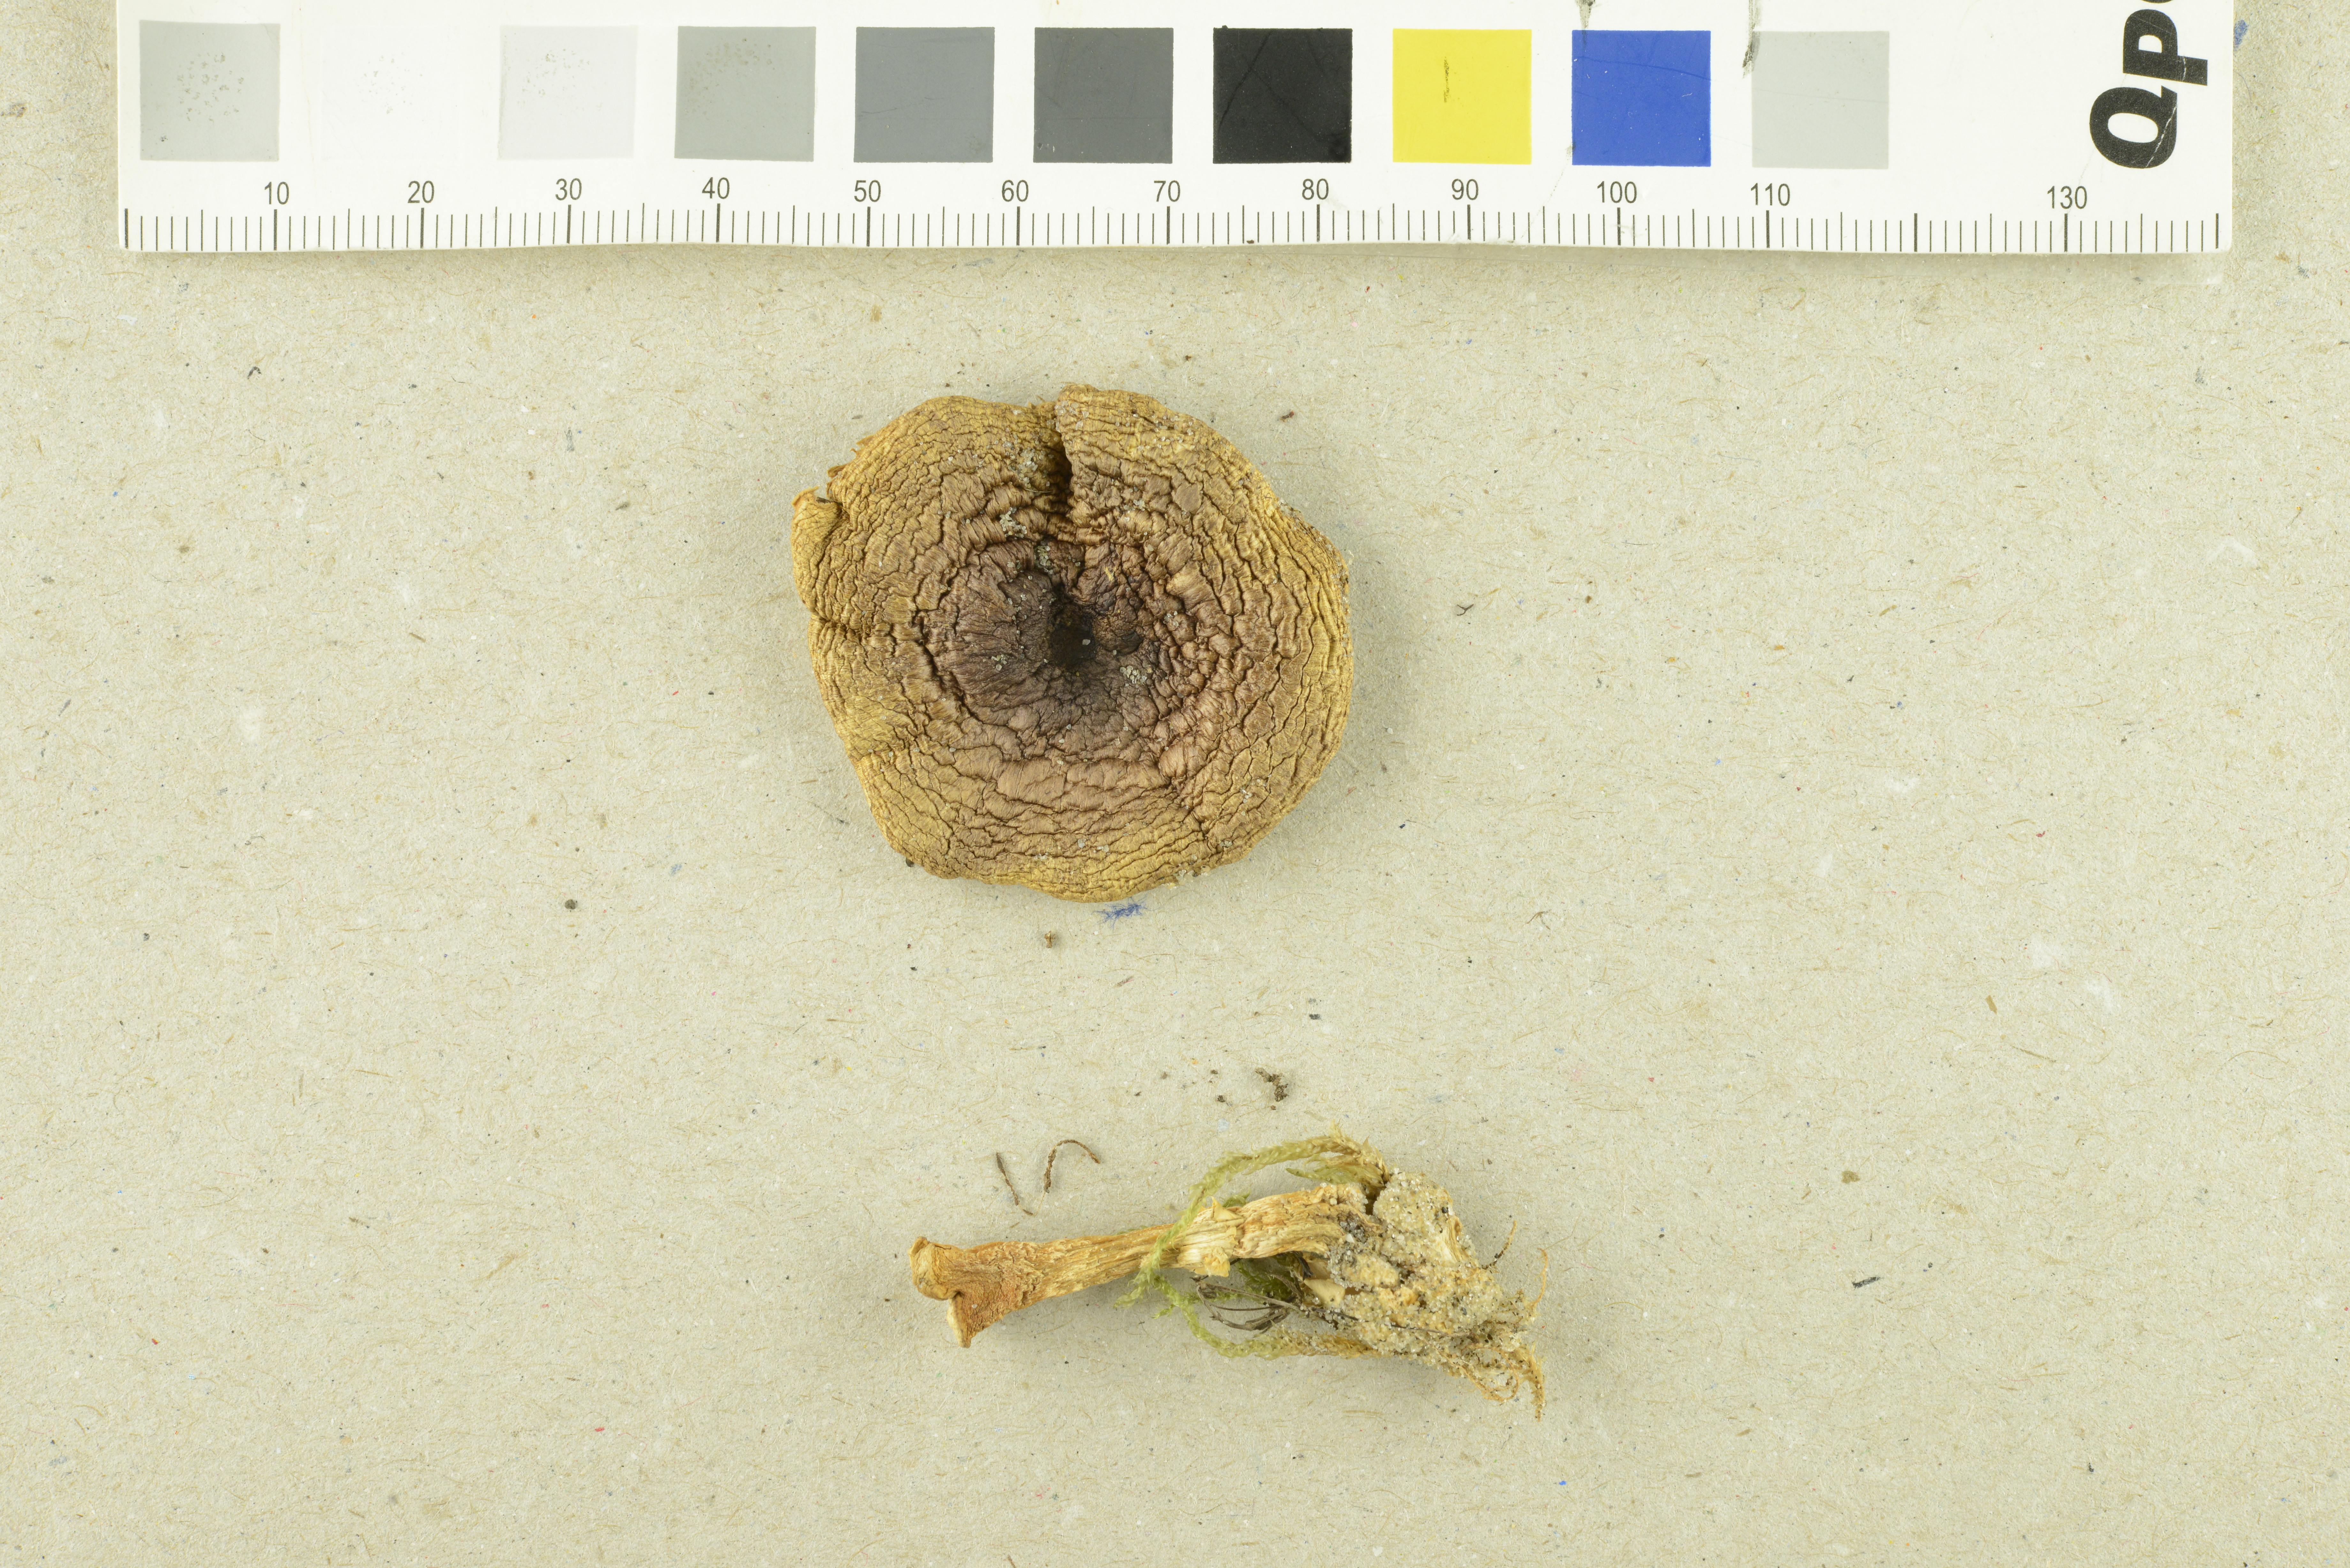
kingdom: Fungi
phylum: Basidiomycota
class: Agaricomycetes
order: Agaricales
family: Agaricaceae
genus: Agaricus
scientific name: Agaricus cupreobrunneus
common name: Copper mushrooom
